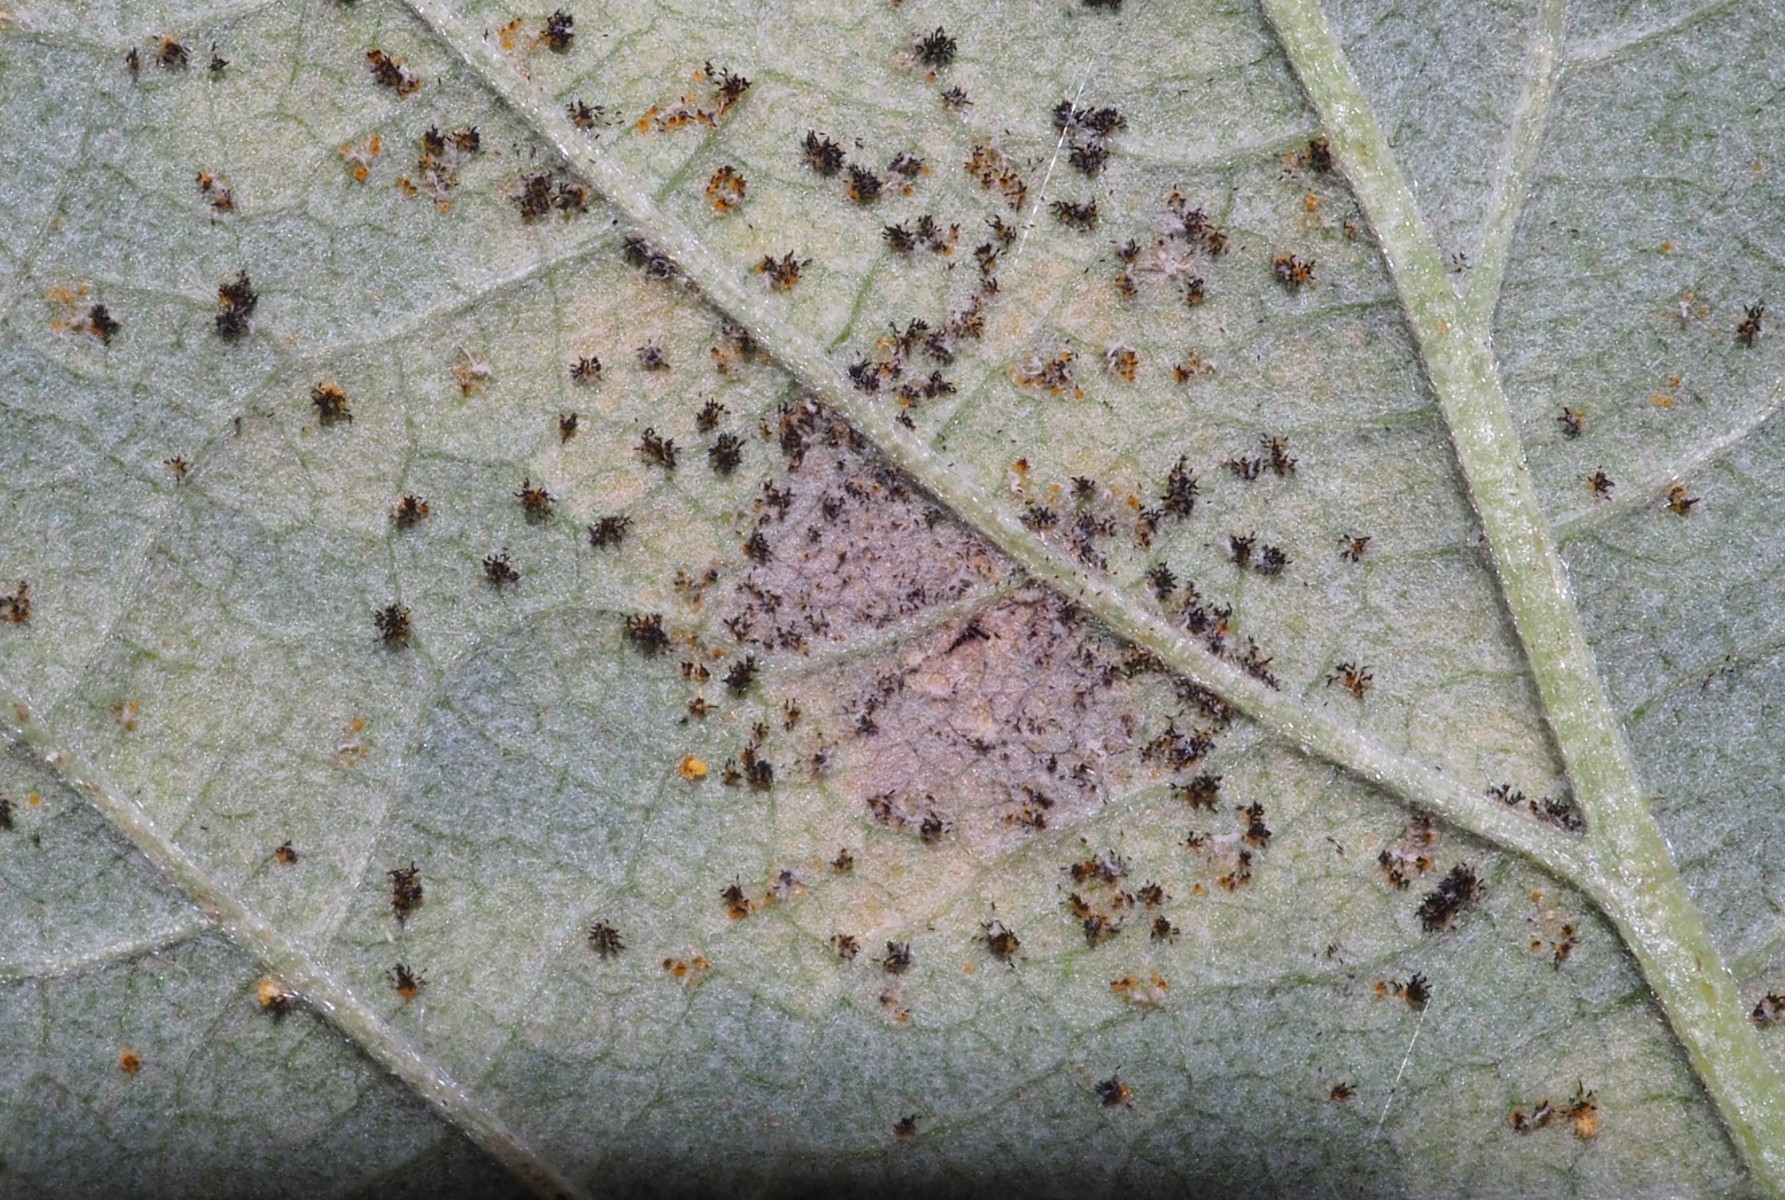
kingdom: Fungi
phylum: Basidiomycota
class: Pucciniomycetes
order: Pucciniales
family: Phragmidiaceae
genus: Phragmidium
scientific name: Phragmidium rubi-idaei
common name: hindbær-flercellerust
